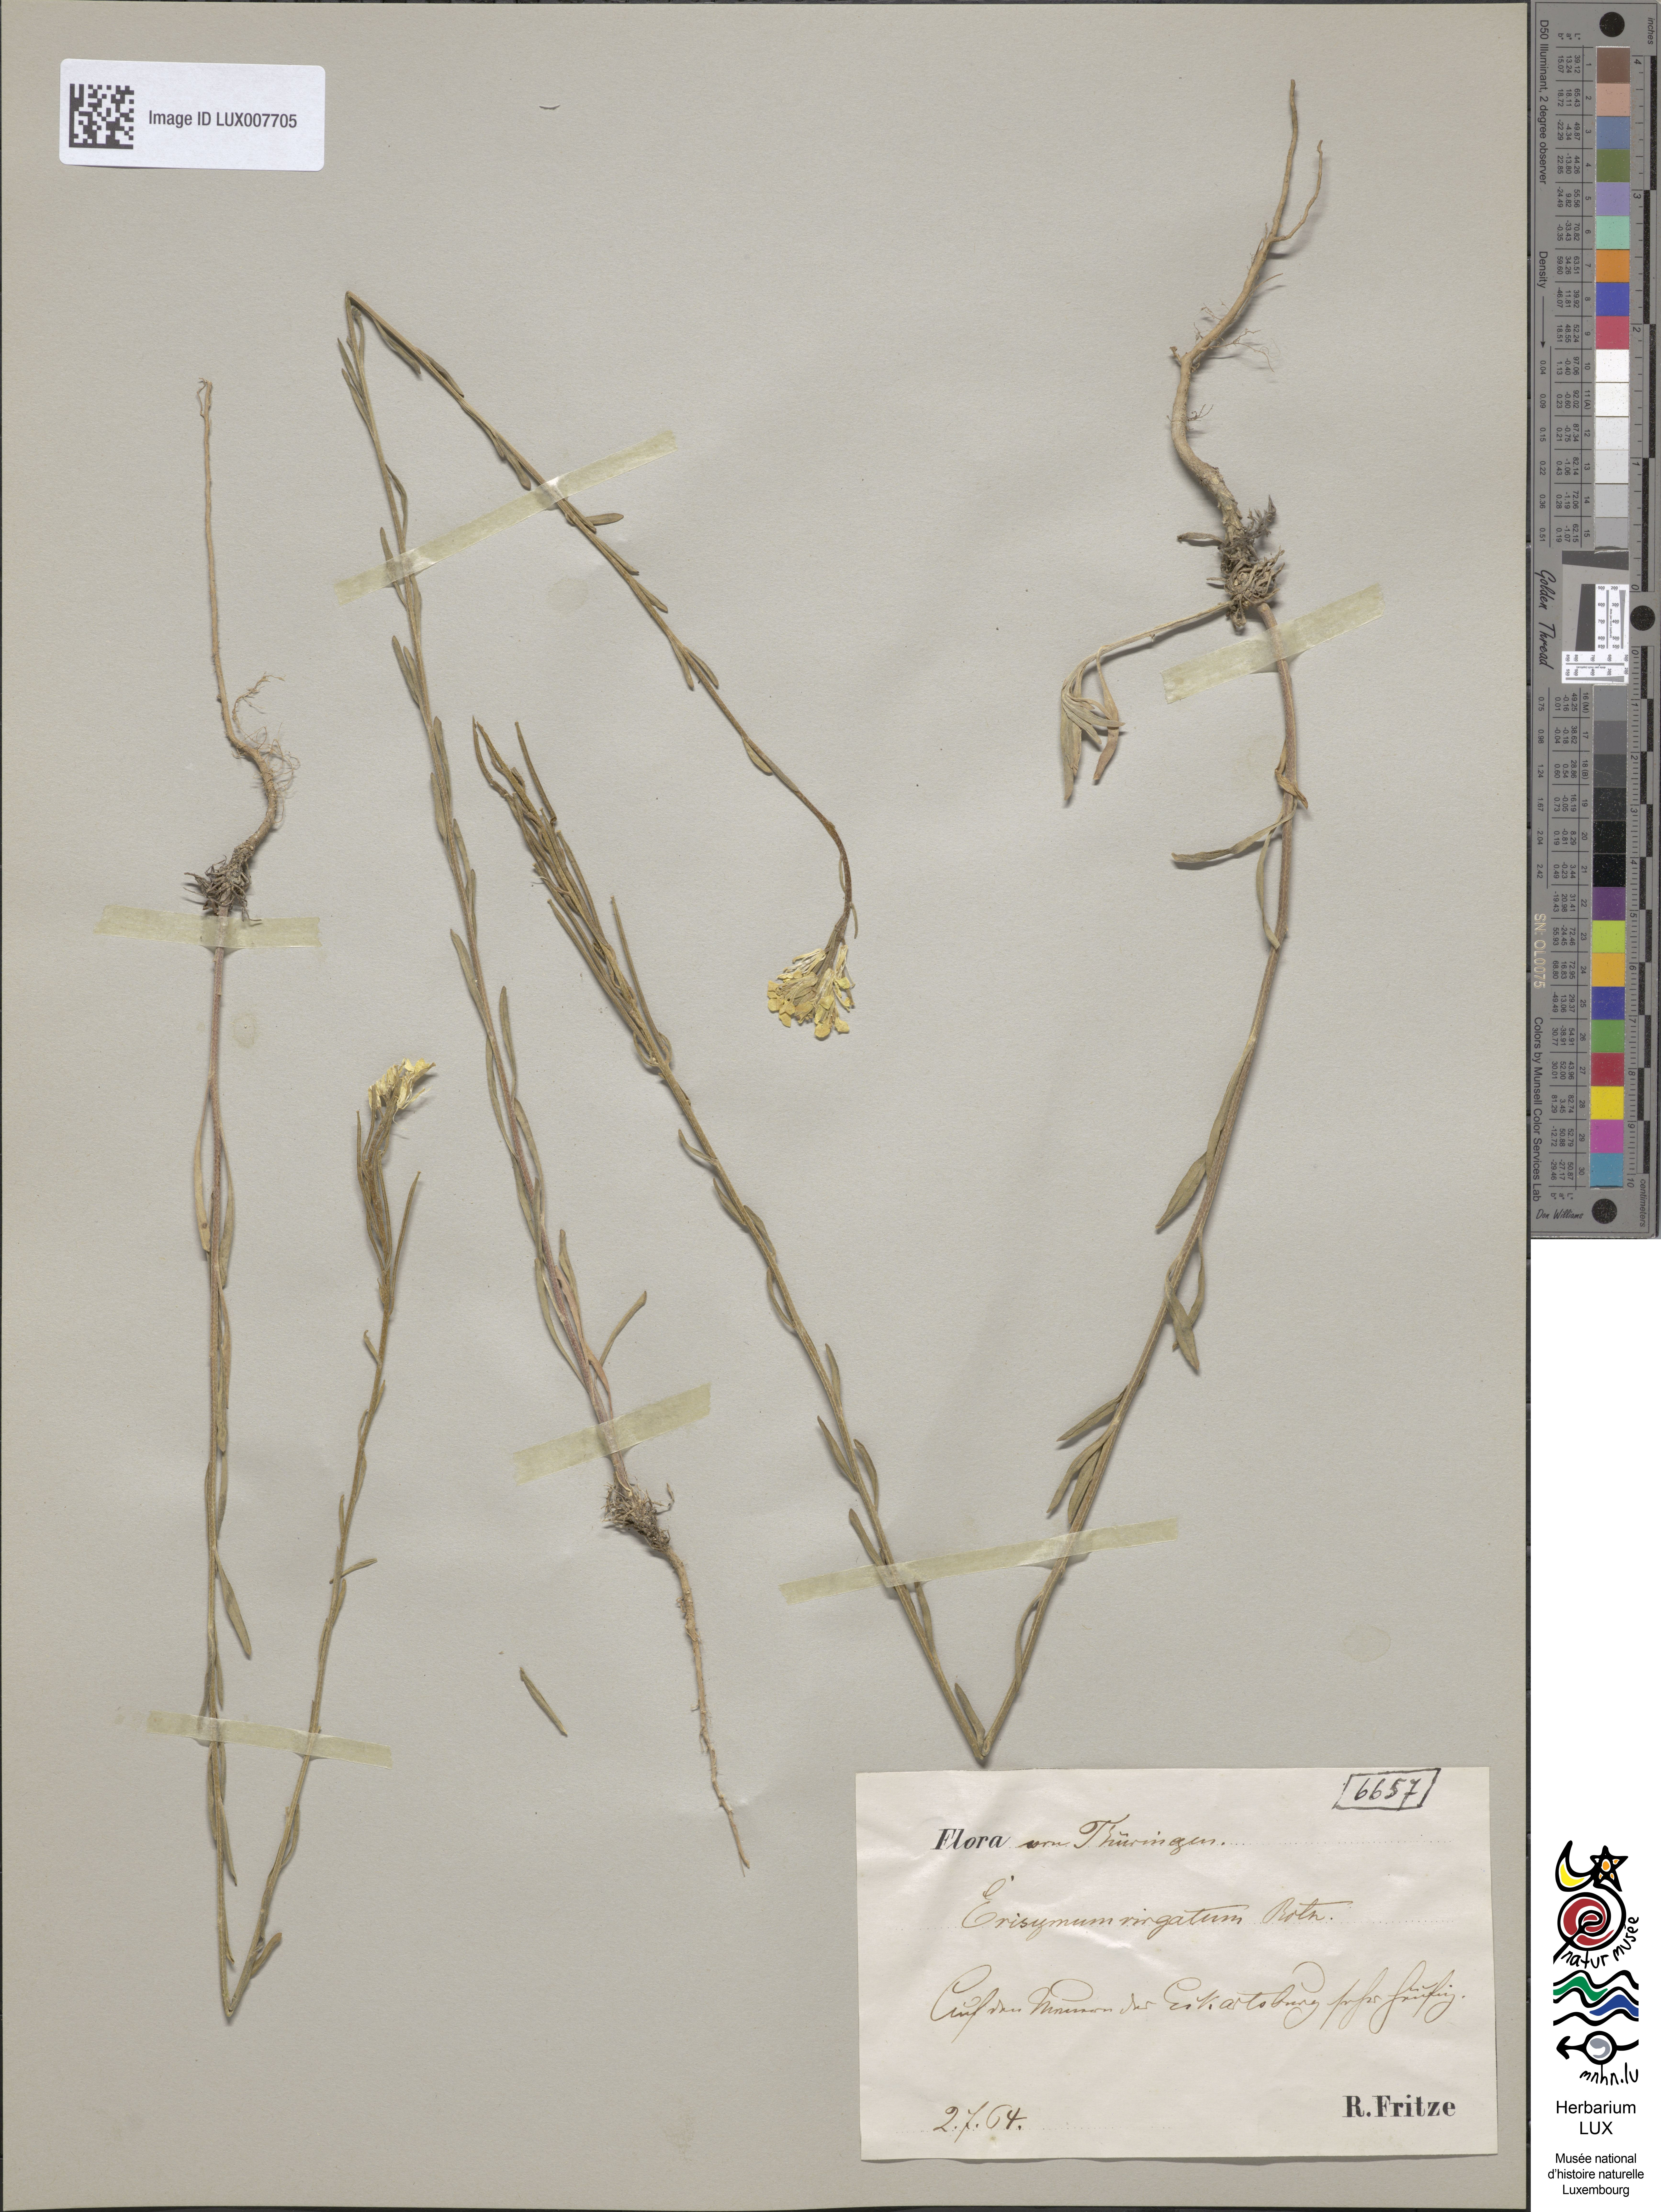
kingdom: Plantae
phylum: Tracheophyta
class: Magnoliopsida
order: Brassicales
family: Brassicaceae
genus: Erysimum
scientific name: Erysimum hieraciifolium
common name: European wallflower
